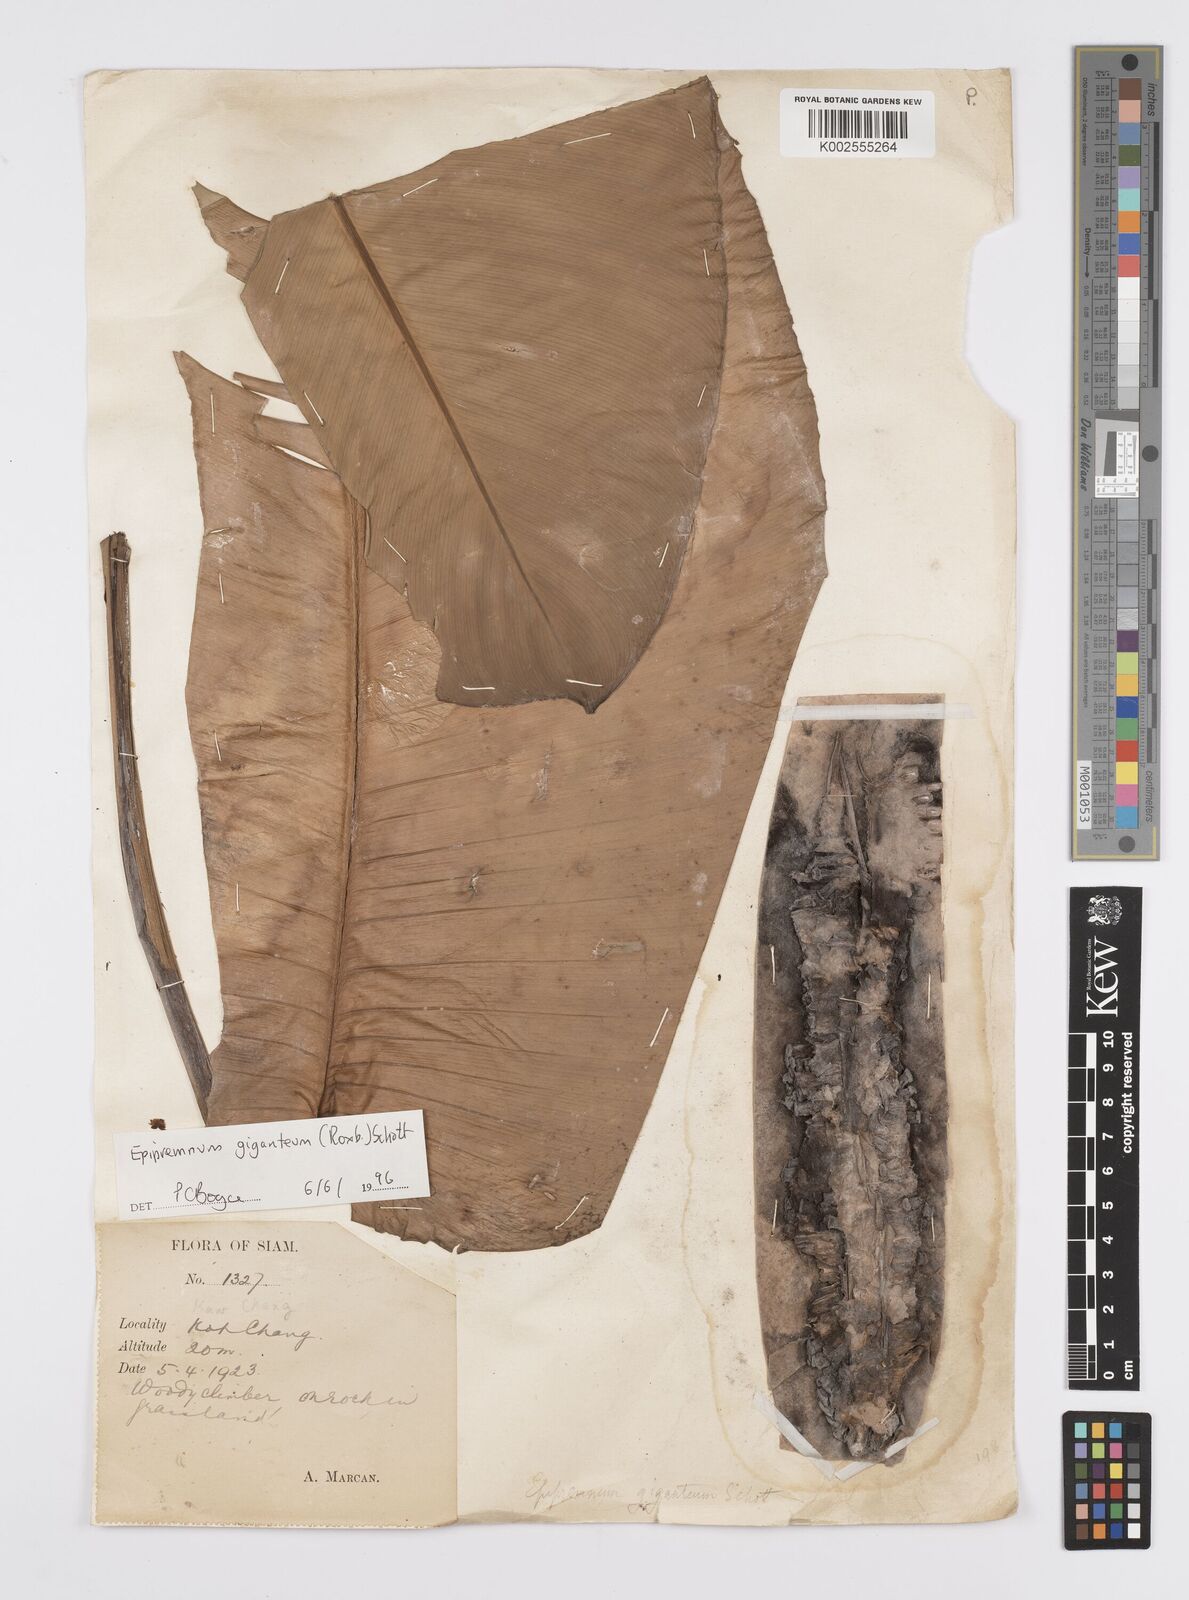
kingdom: Plantae
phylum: Tracheophyta
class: Liliopsida
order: Alismatales
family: Araceae
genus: Epipremnum
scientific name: Epipremnum giganteum
